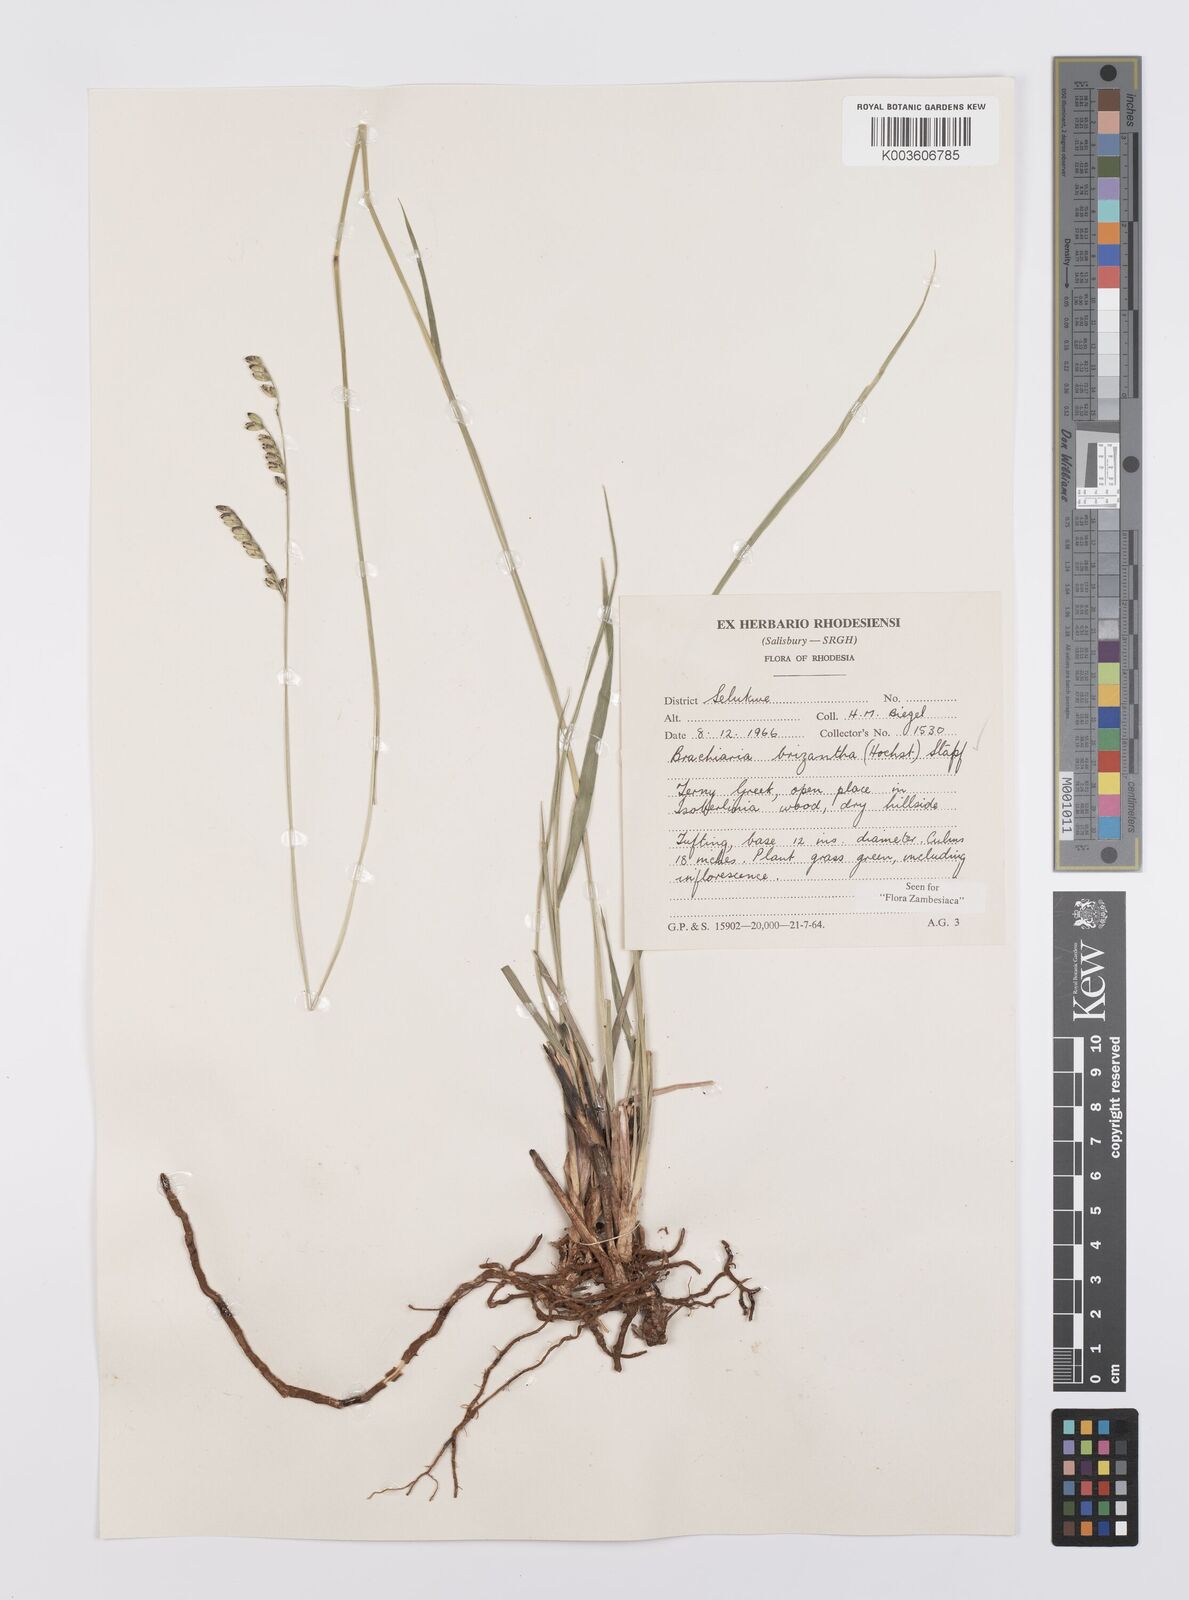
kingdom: Plantae
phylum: Tracheophyta
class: Liliopsida
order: Poales
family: Poaceae
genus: Urochloa
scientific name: Urochloa brizantha
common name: Palisade signalgrass
